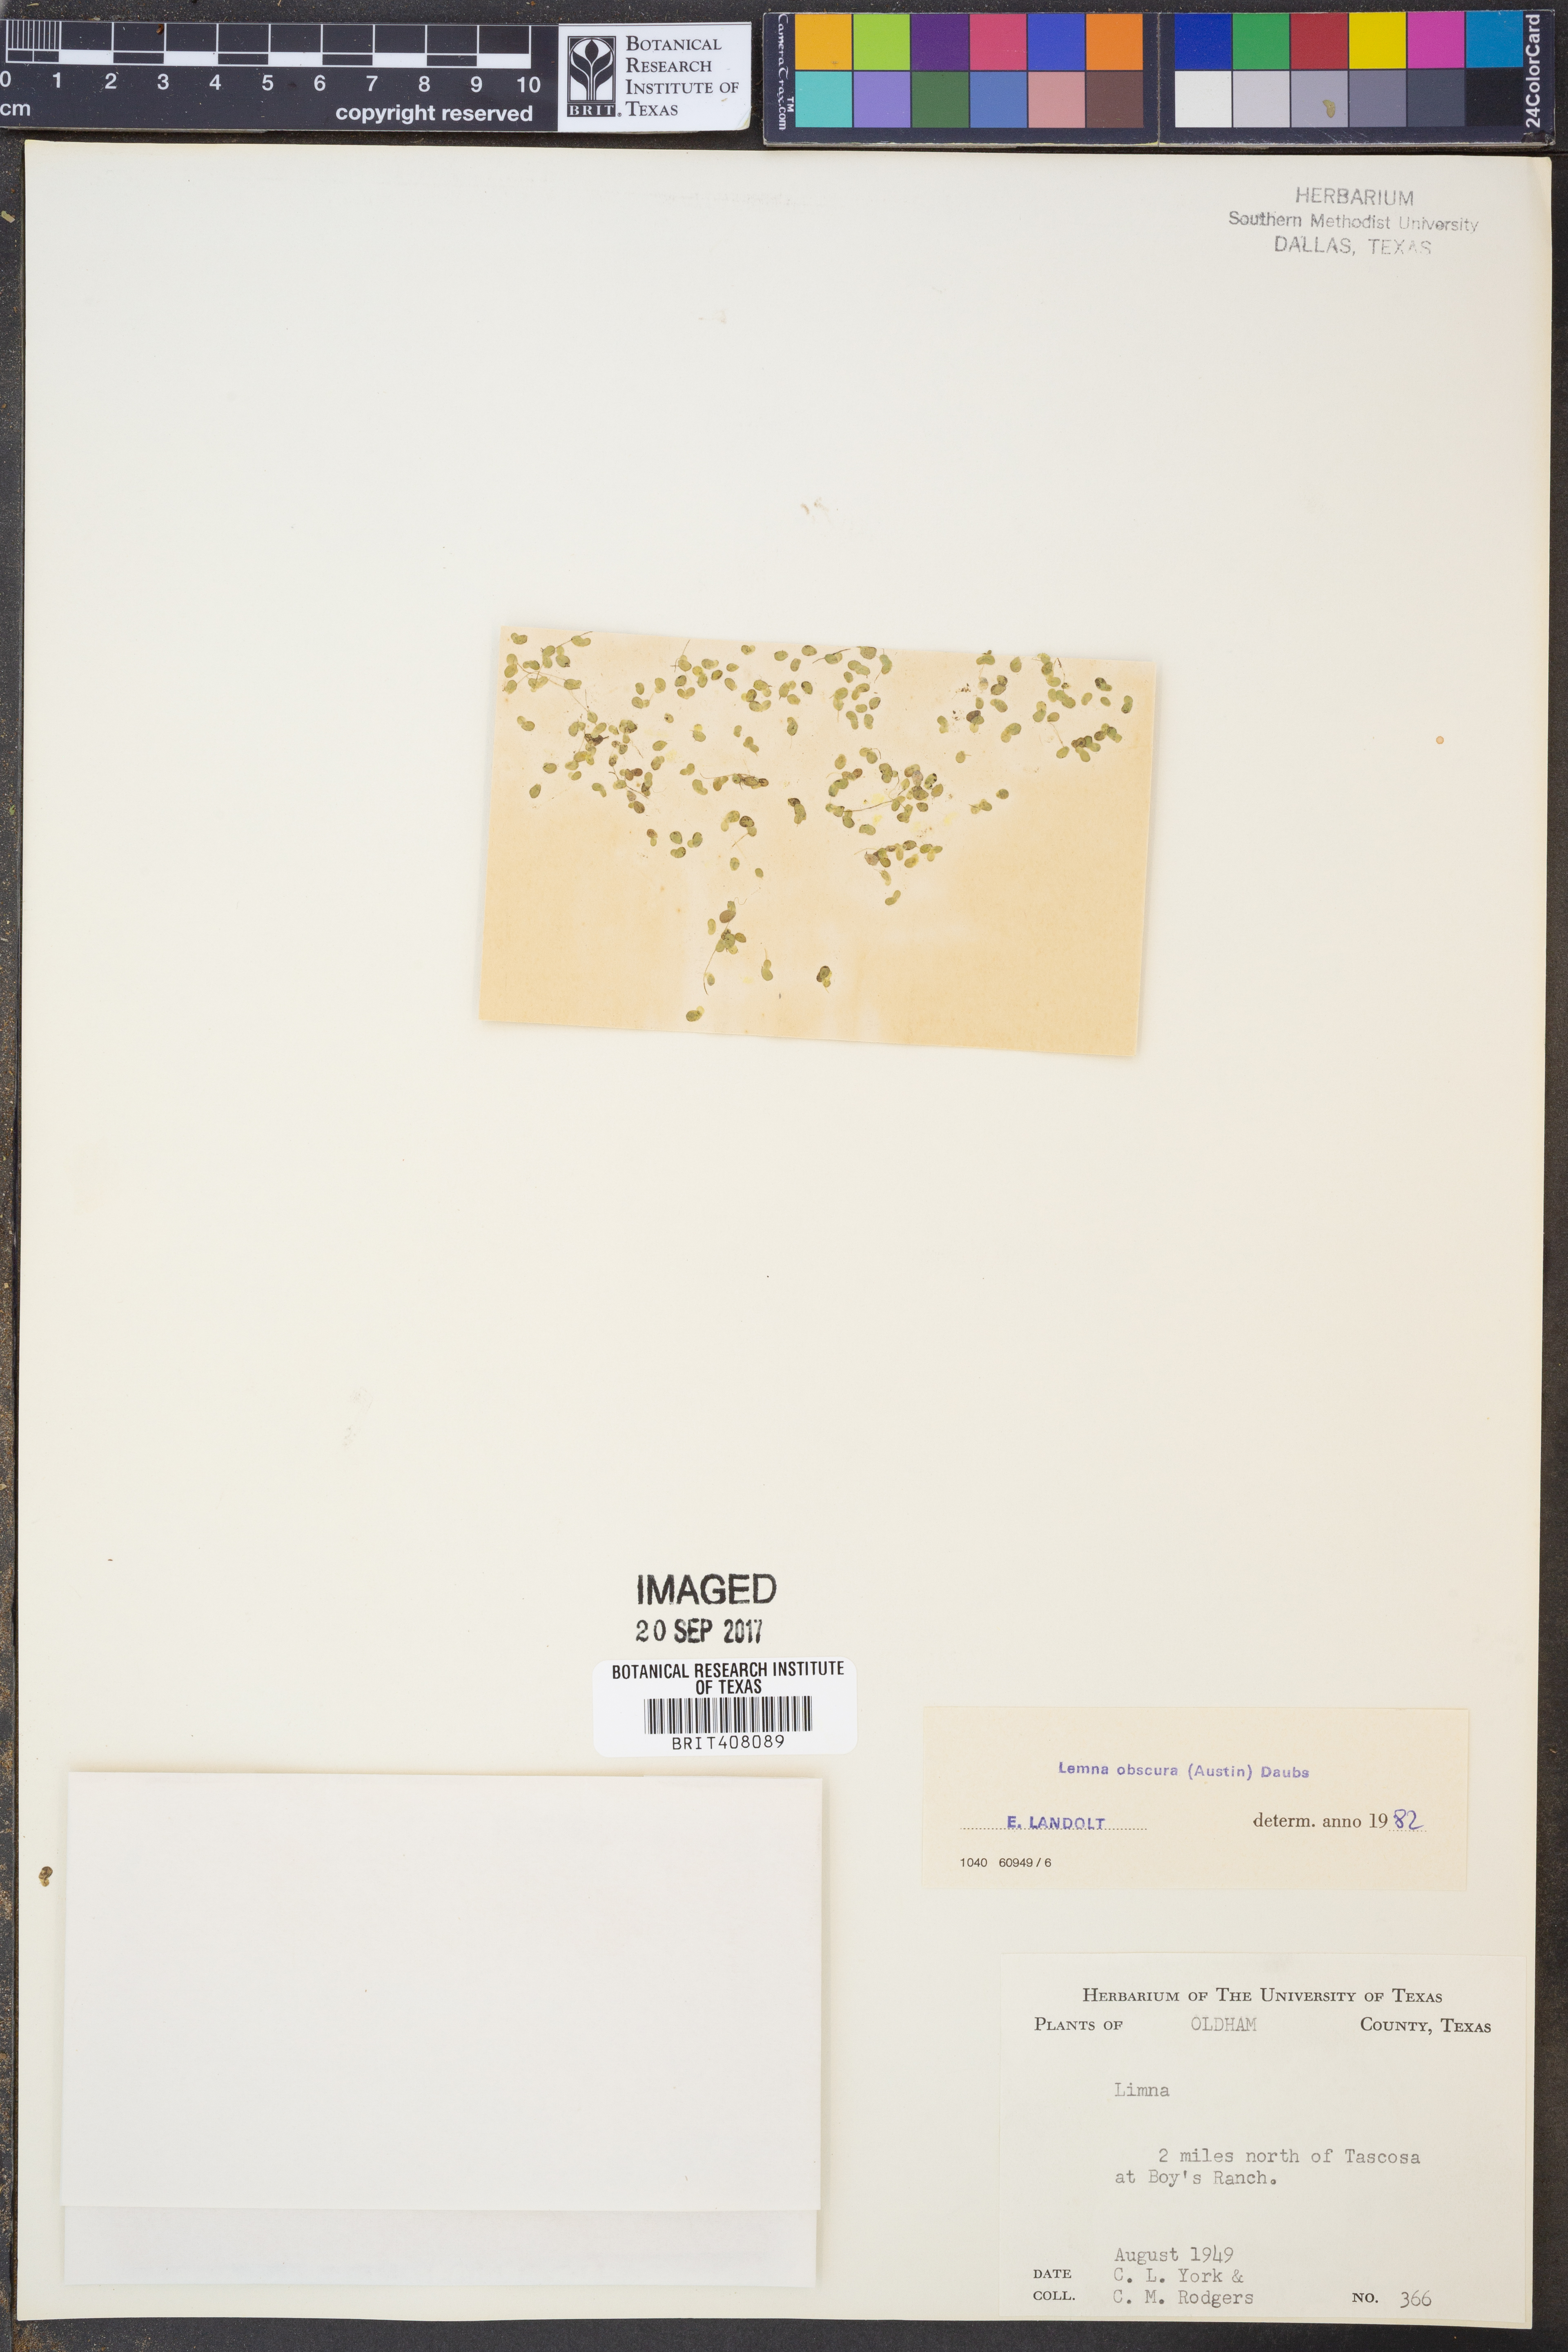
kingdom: Plantae
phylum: Tracheophyta
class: Liliopsida
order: Alismatales
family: Araceae
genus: Lemna
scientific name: Lemna obscura
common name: Little duckweed
